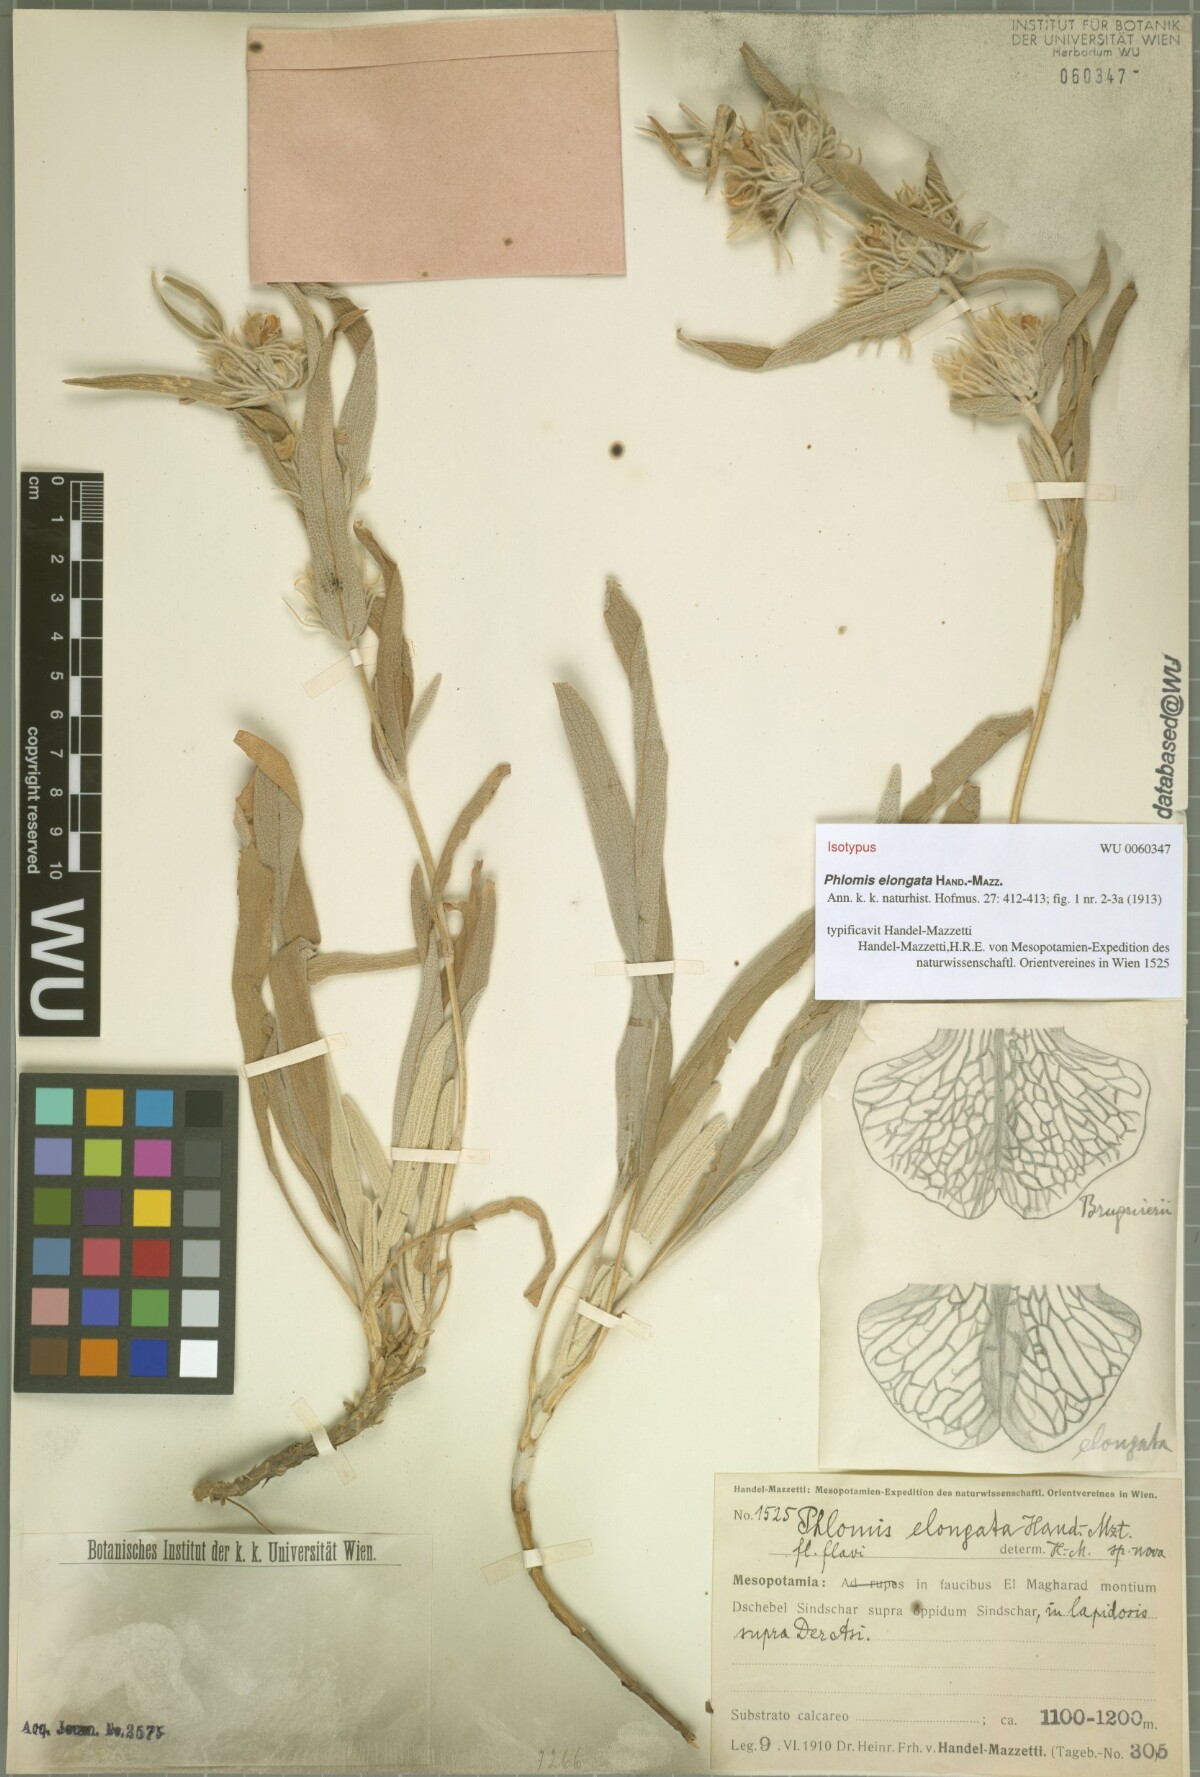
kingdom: Plantae
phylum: Tracheophyta
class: Magnoliopsida
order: Lamiales
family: Lamiaceae
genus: Phlomis
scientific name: Phlomis elongata
